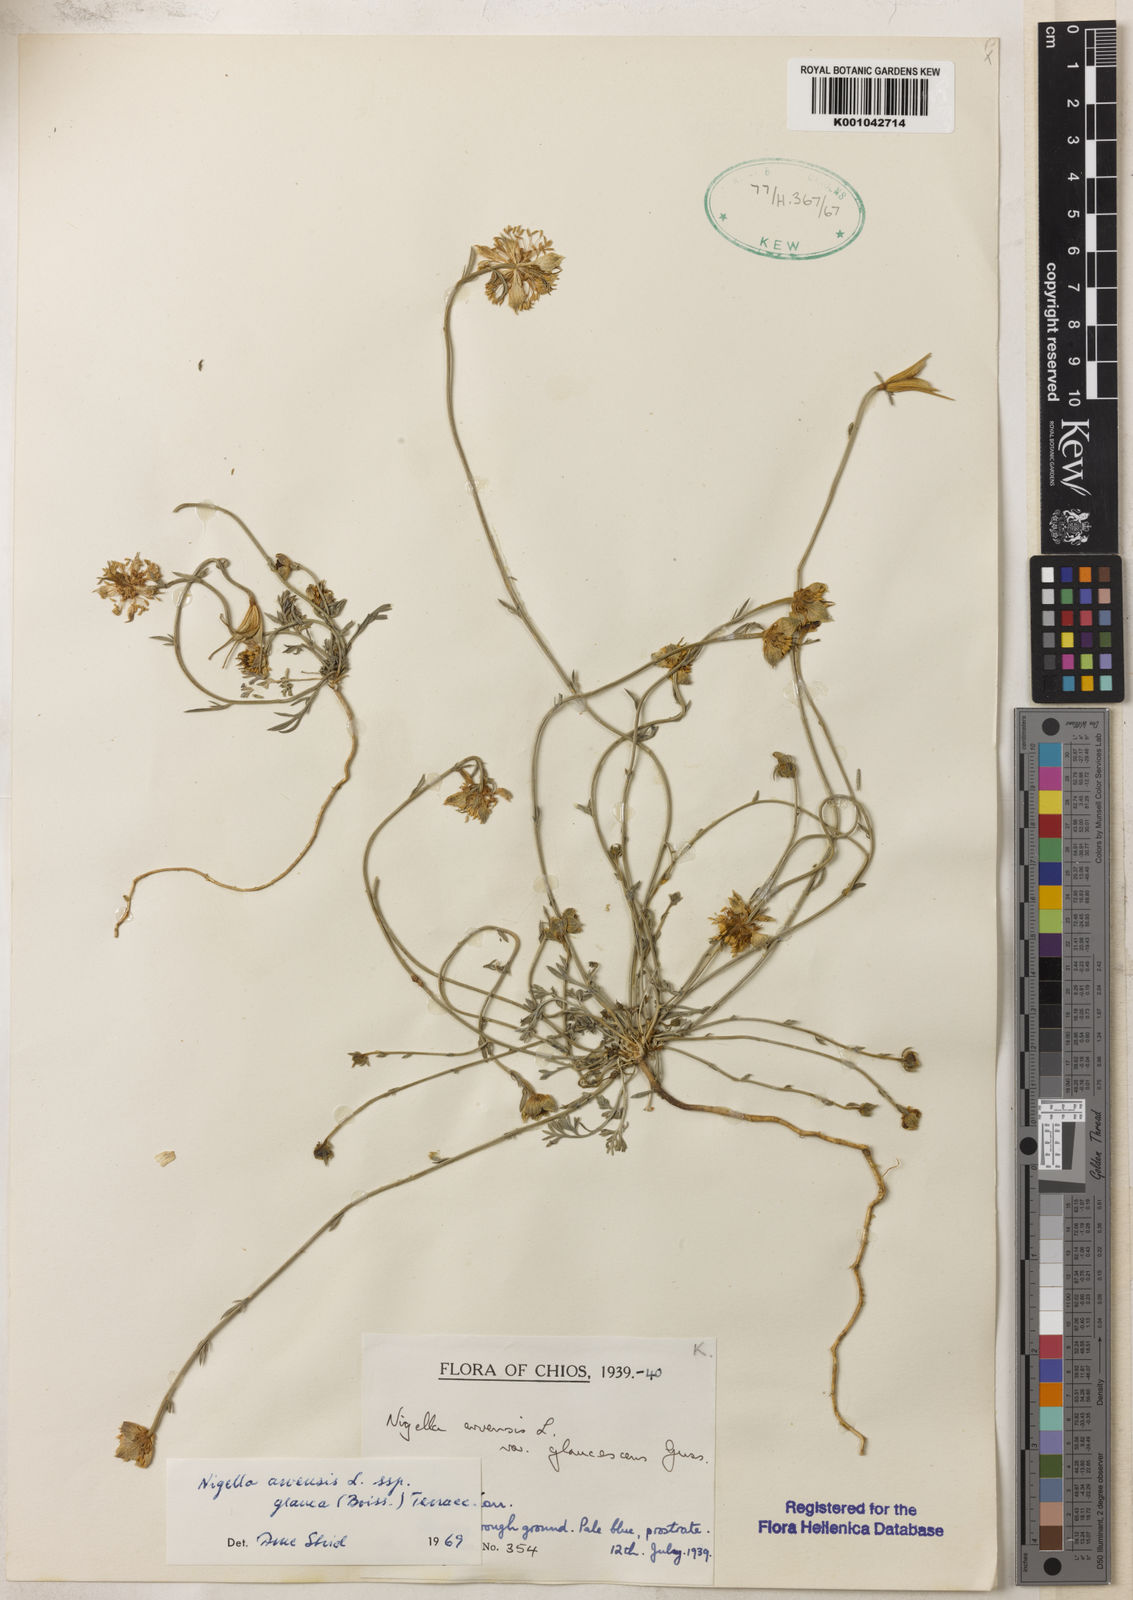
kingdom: Plantae
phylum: Tracheophyta
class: Magnoliopsida
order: Ranunculales
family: Ranunculaceae
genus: Nigella
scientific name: Nigella arvensis
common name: Wild fennel-flower
